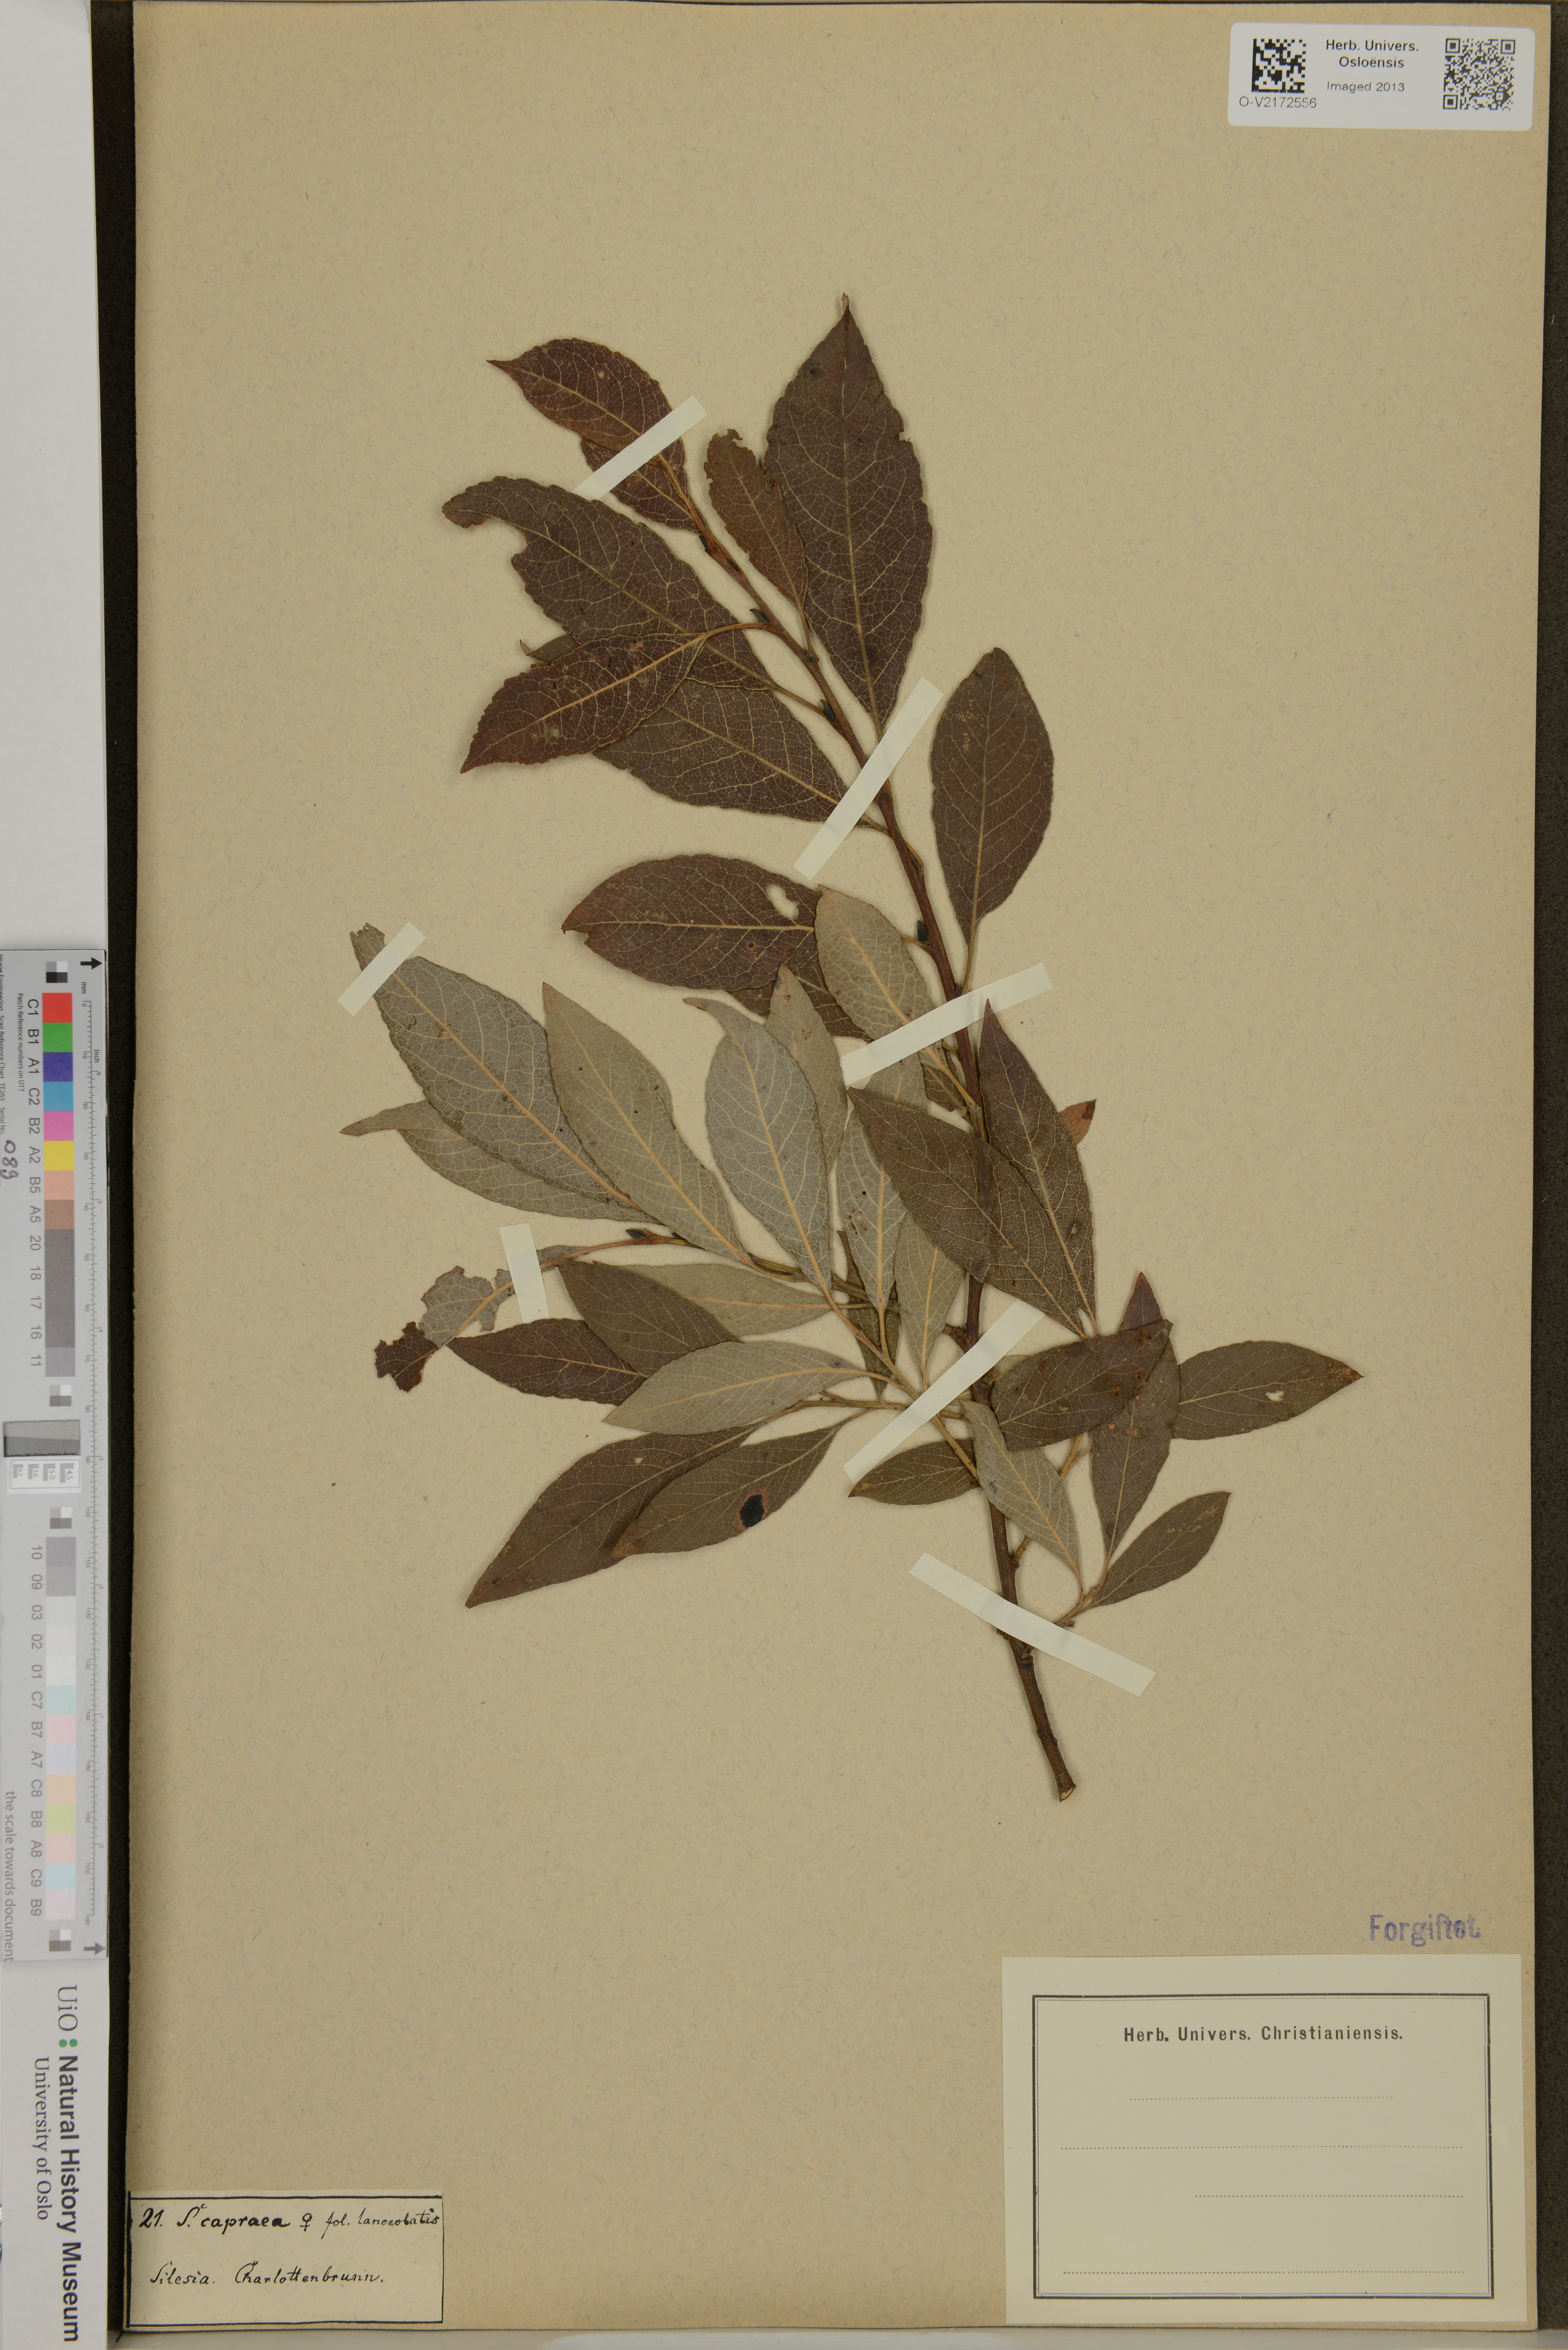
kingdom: Plantae
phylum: Tracheophyta
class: Magnoliopsida
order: Malpighiales
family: Salicaceae
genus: Salix
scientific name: Salix caprea
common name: Goat willow
